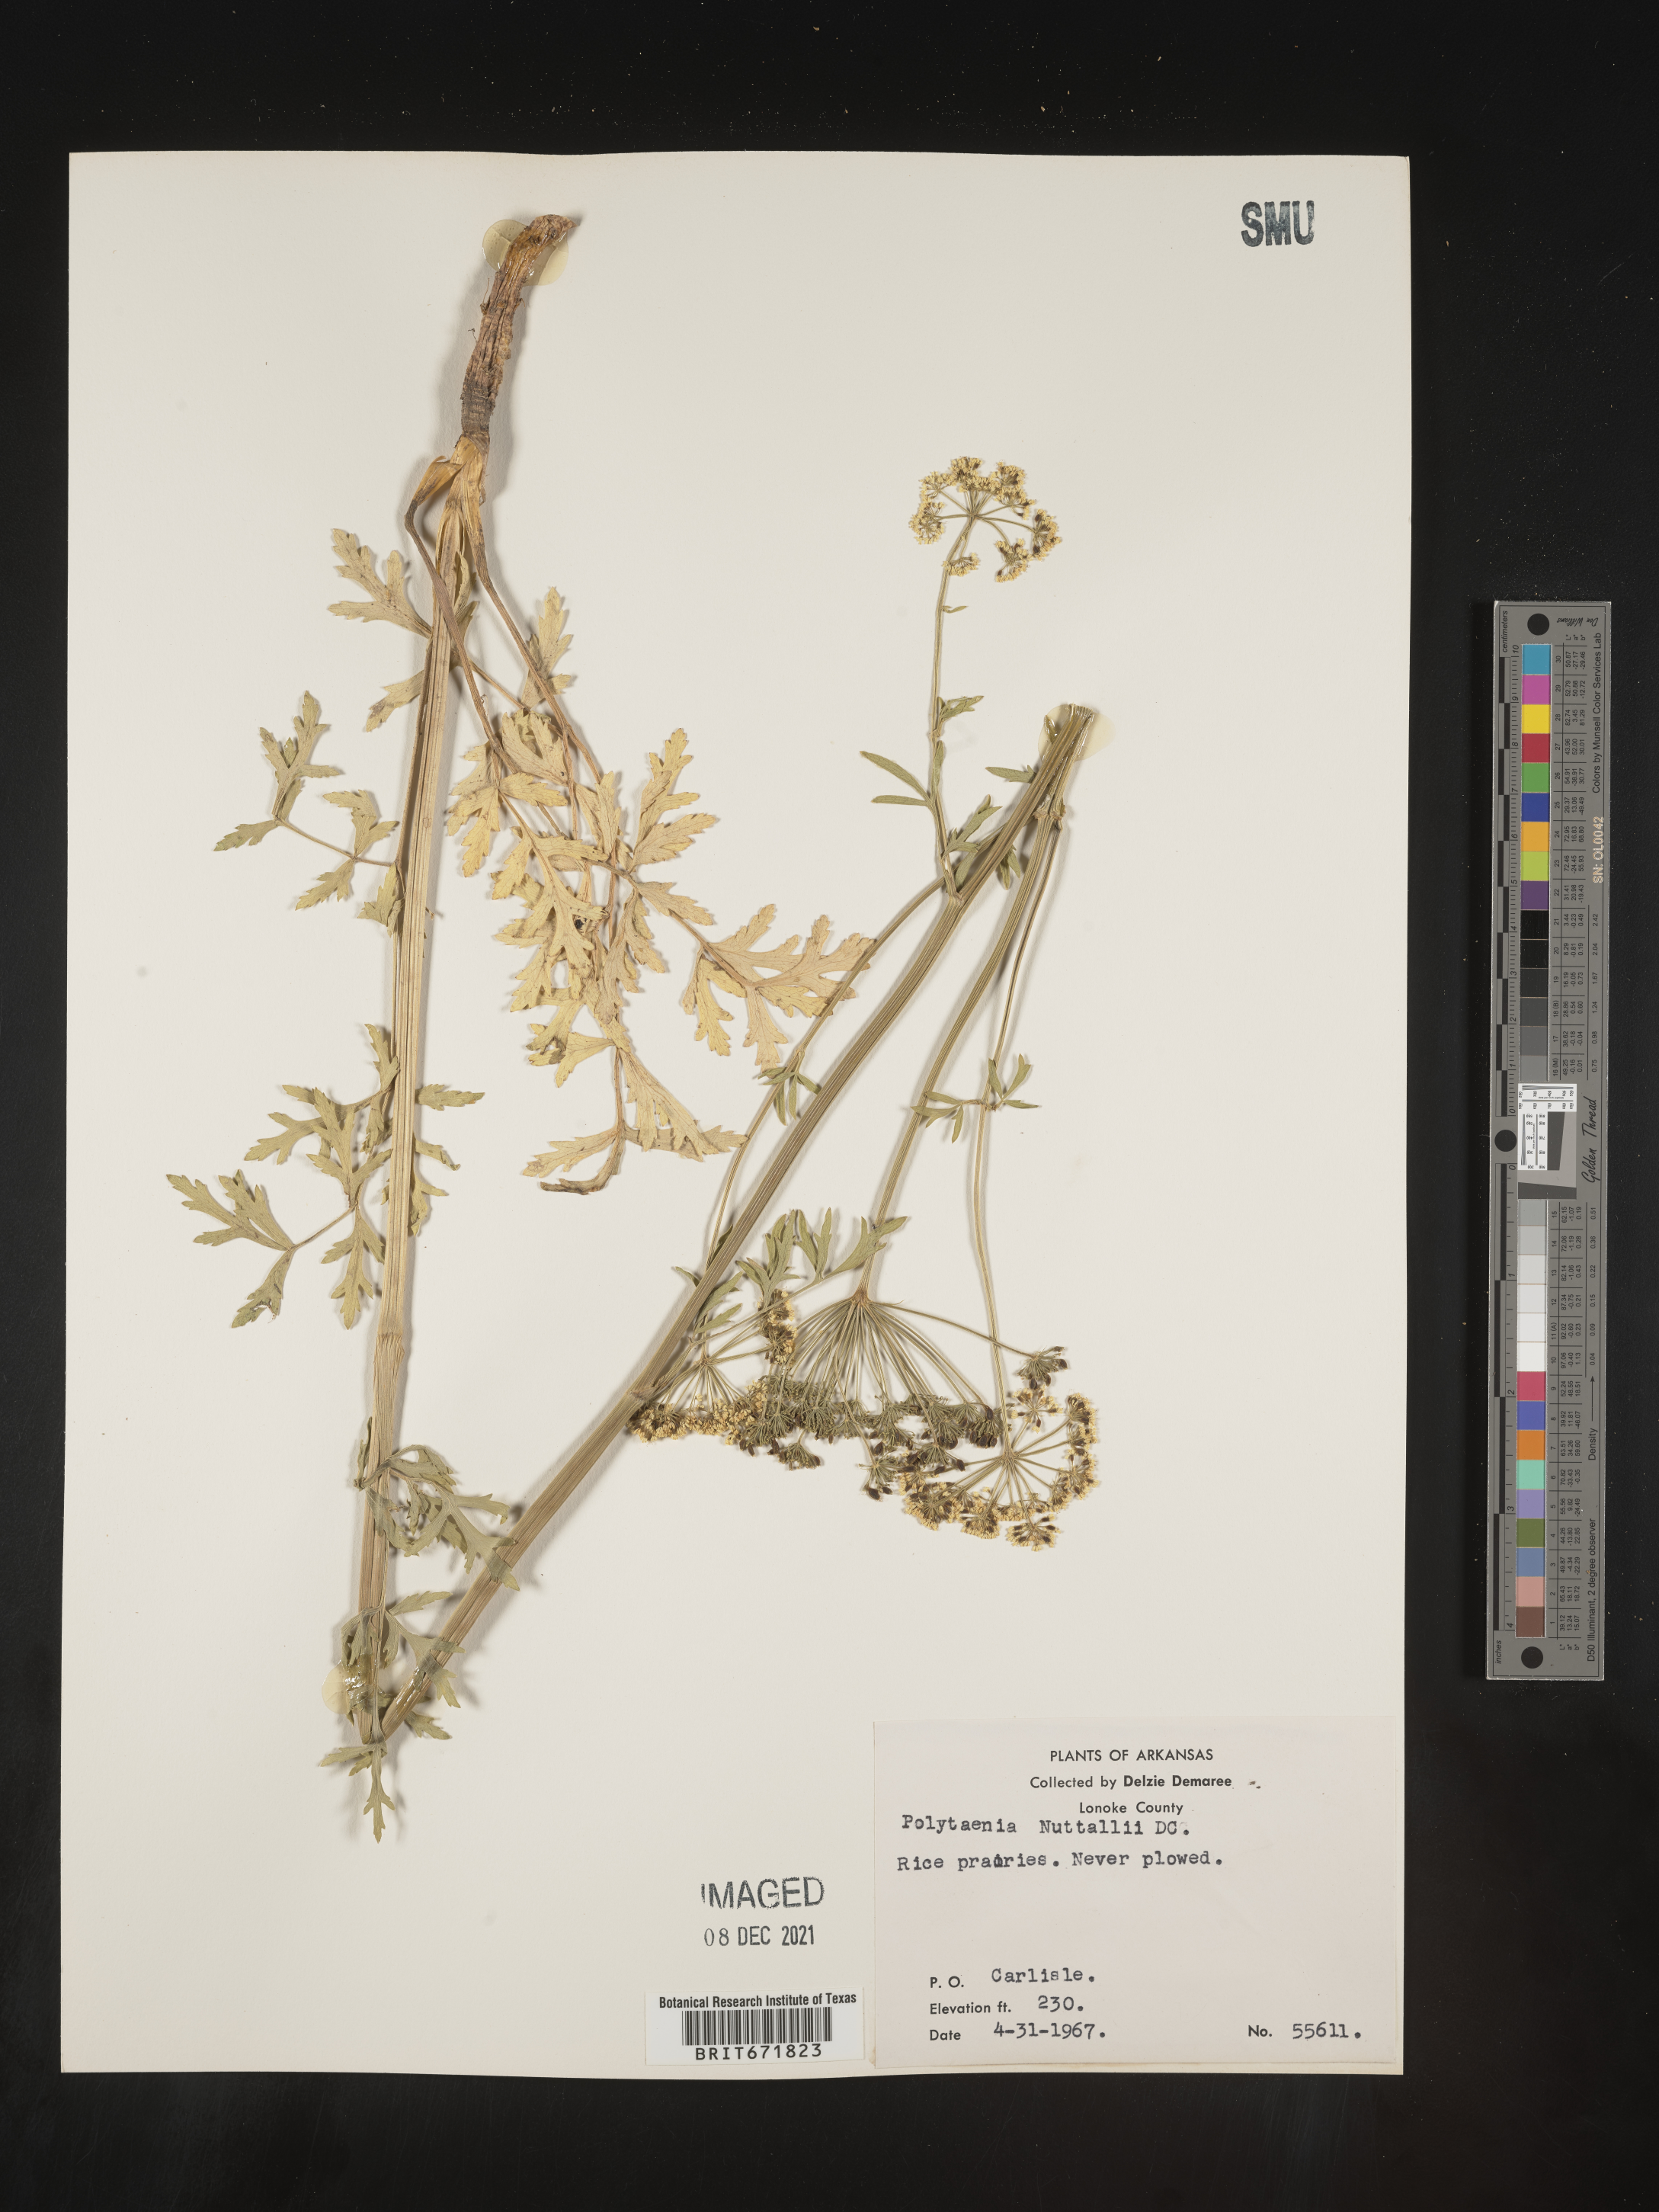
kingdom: Plantae
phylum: Tracheophyta
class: Magnoliopsida
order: Apiales
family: Apiaceae
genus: Polytaenia
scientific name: Polytaenia nuttallii
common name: Prairie-parsley
